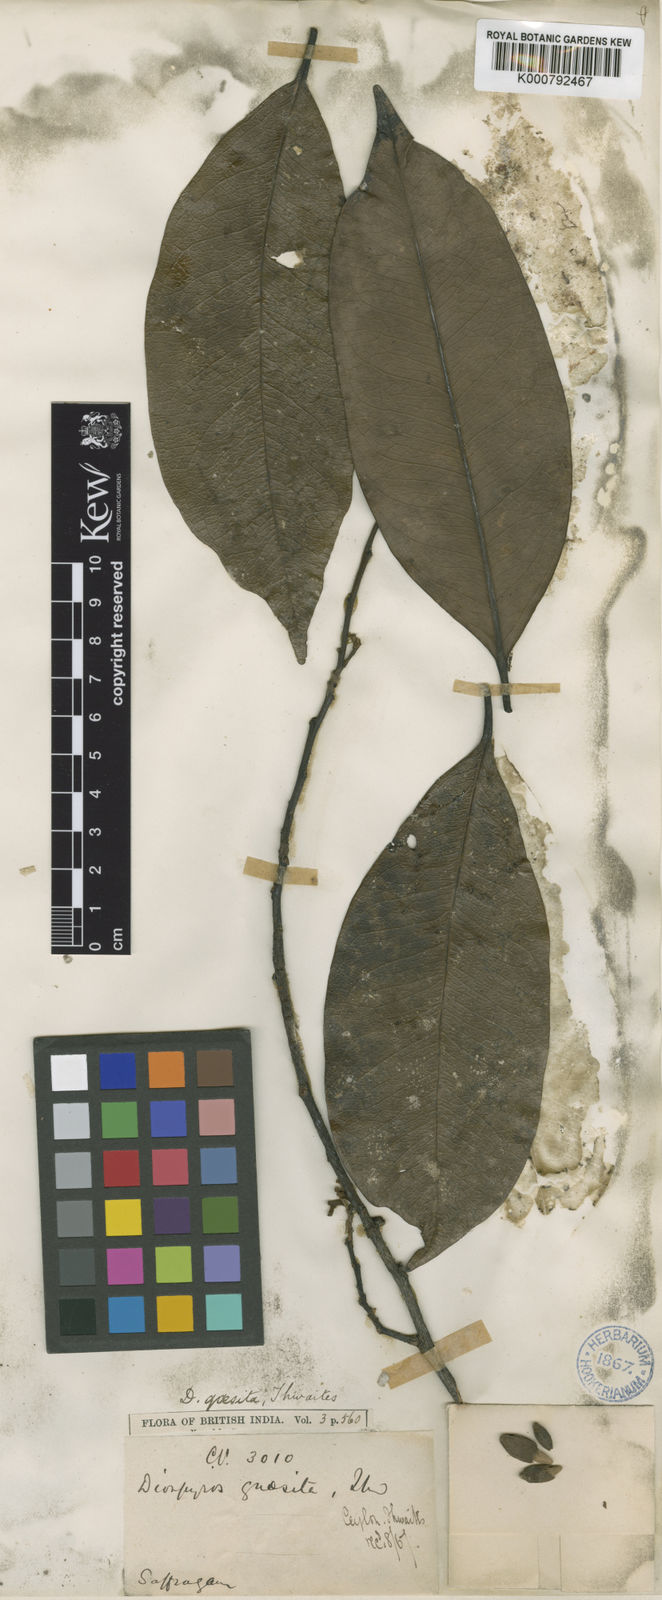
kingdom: Plantae
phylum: Tracheophyta
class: Magnoliopsida
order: Ericales
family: Ebenaceae
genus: Diospyros
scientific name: Diospyros quaesita
